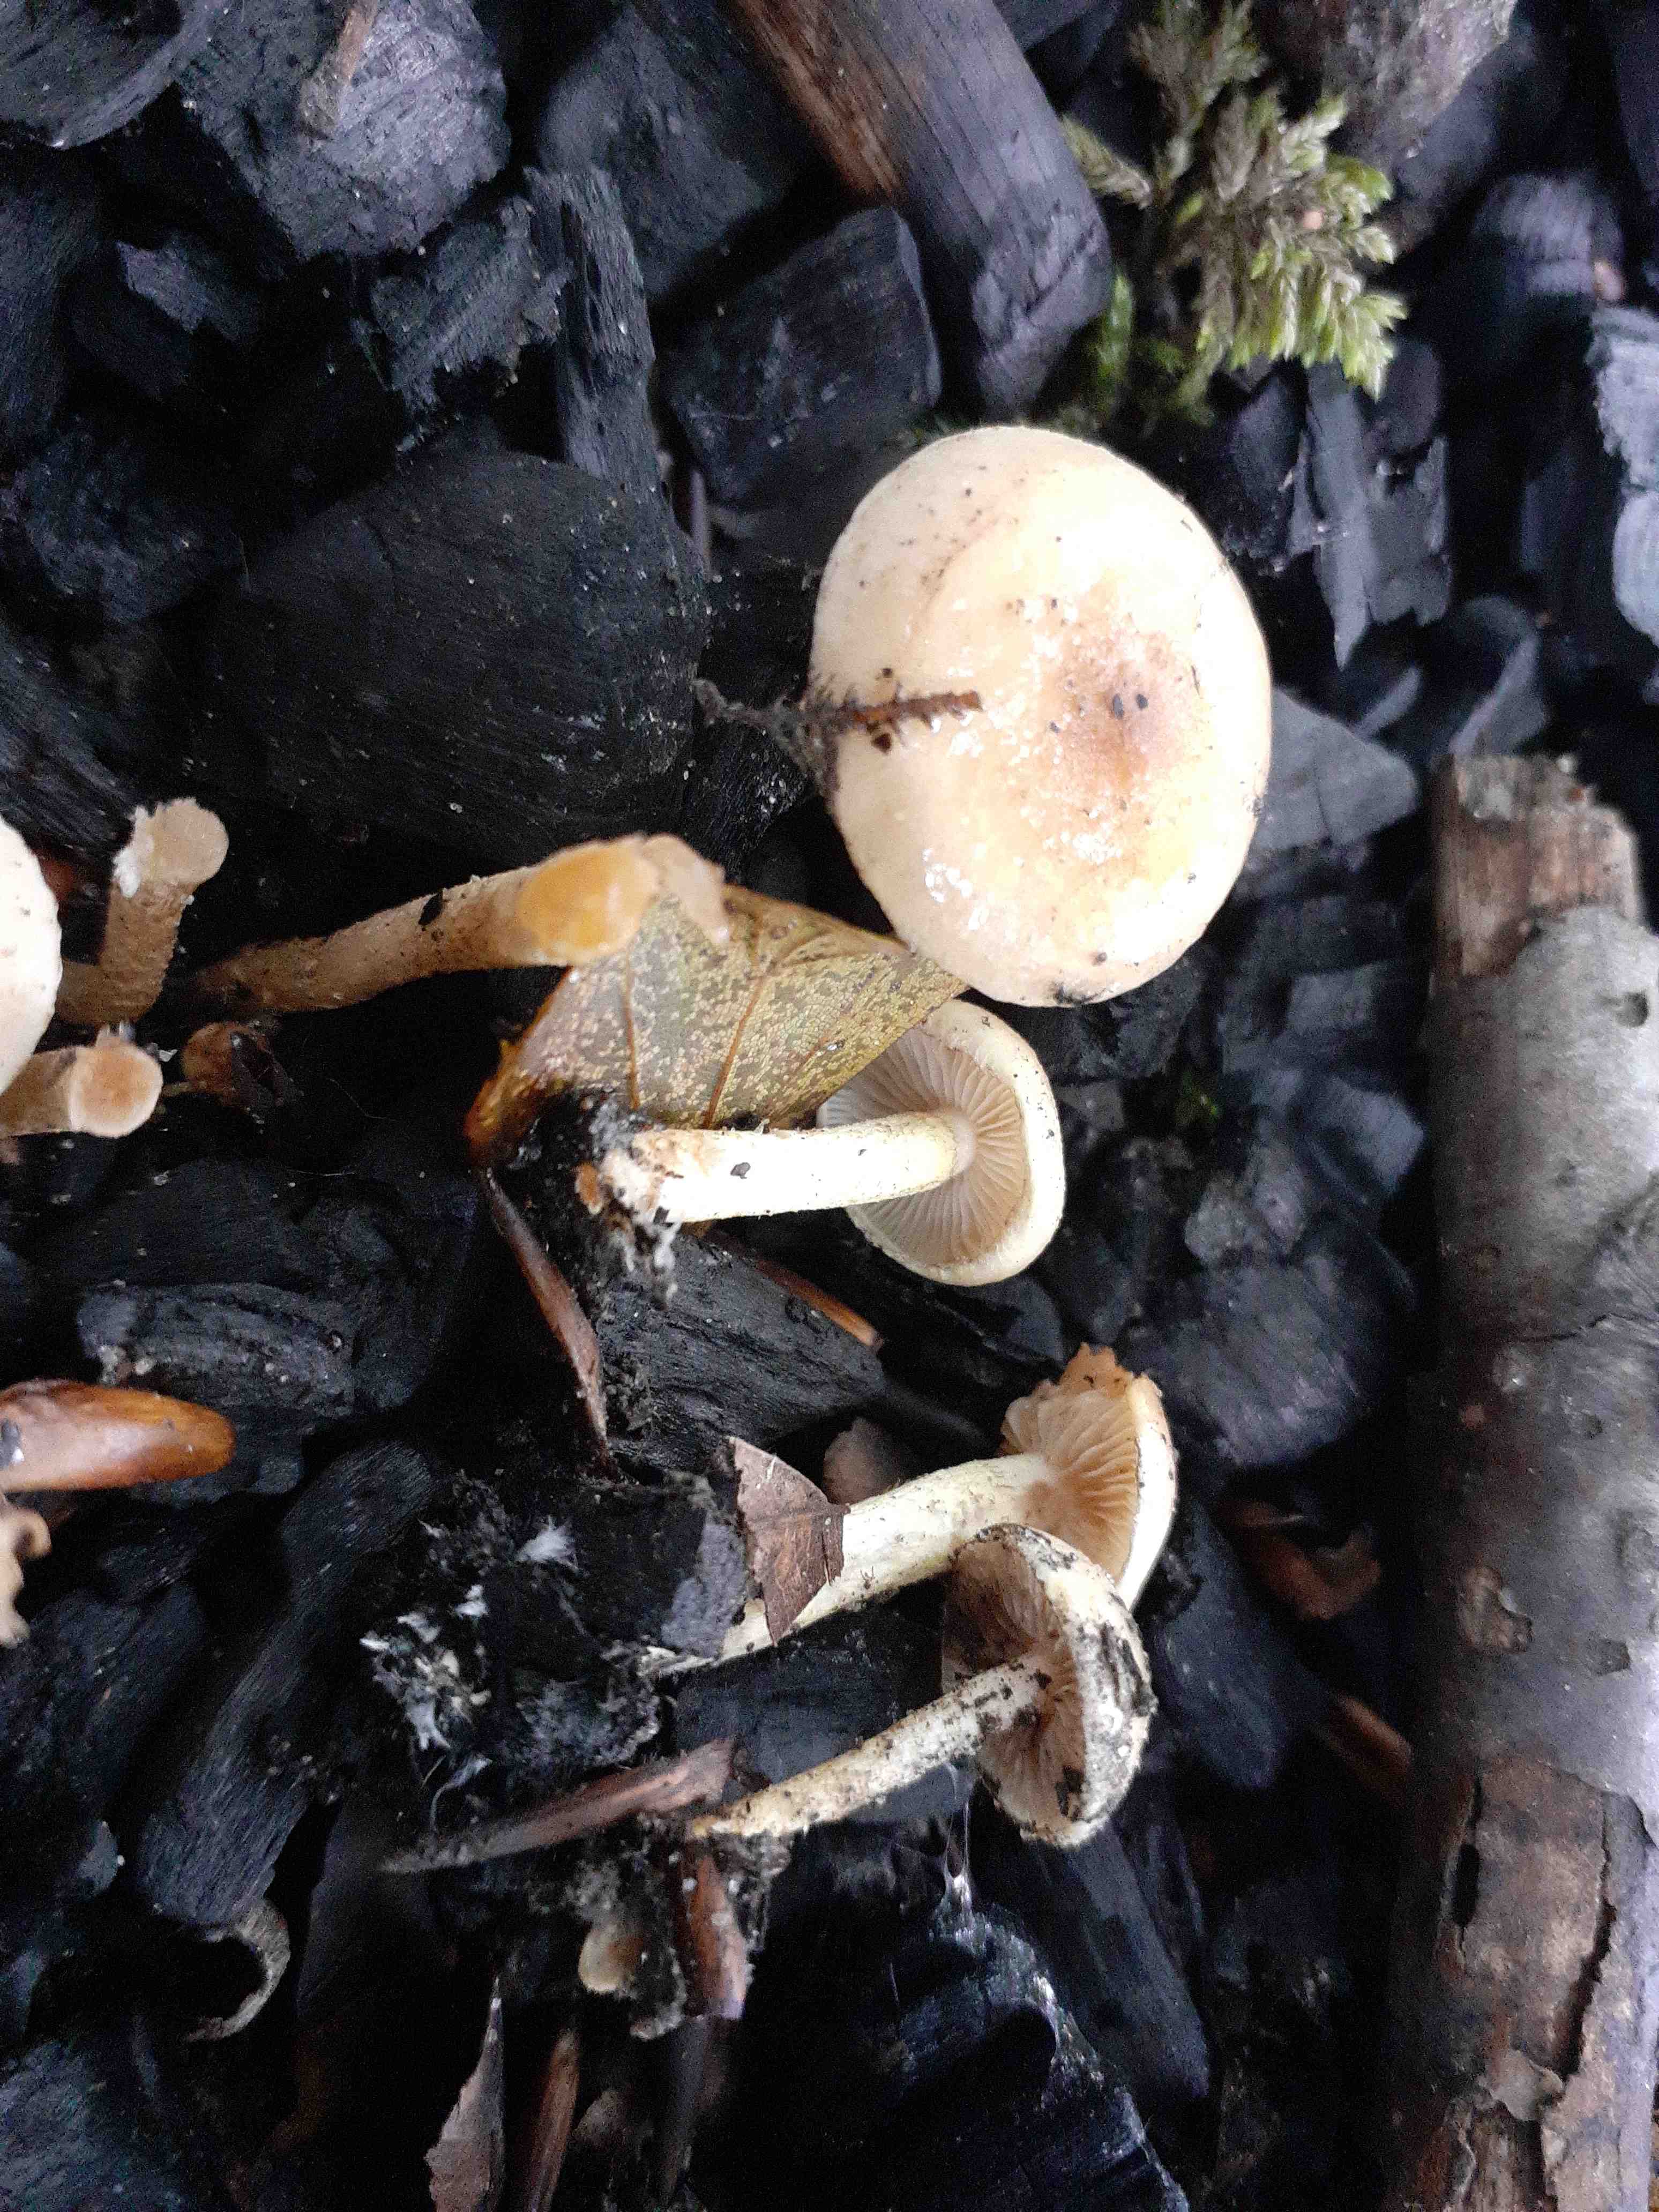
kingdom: Fungi
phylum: Basidiomycota
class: Agaricomycetes
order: Agaricales
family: Strophariaceae
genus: Pholiota
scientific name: Pholiota carbonaria
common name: kul-skælhat
